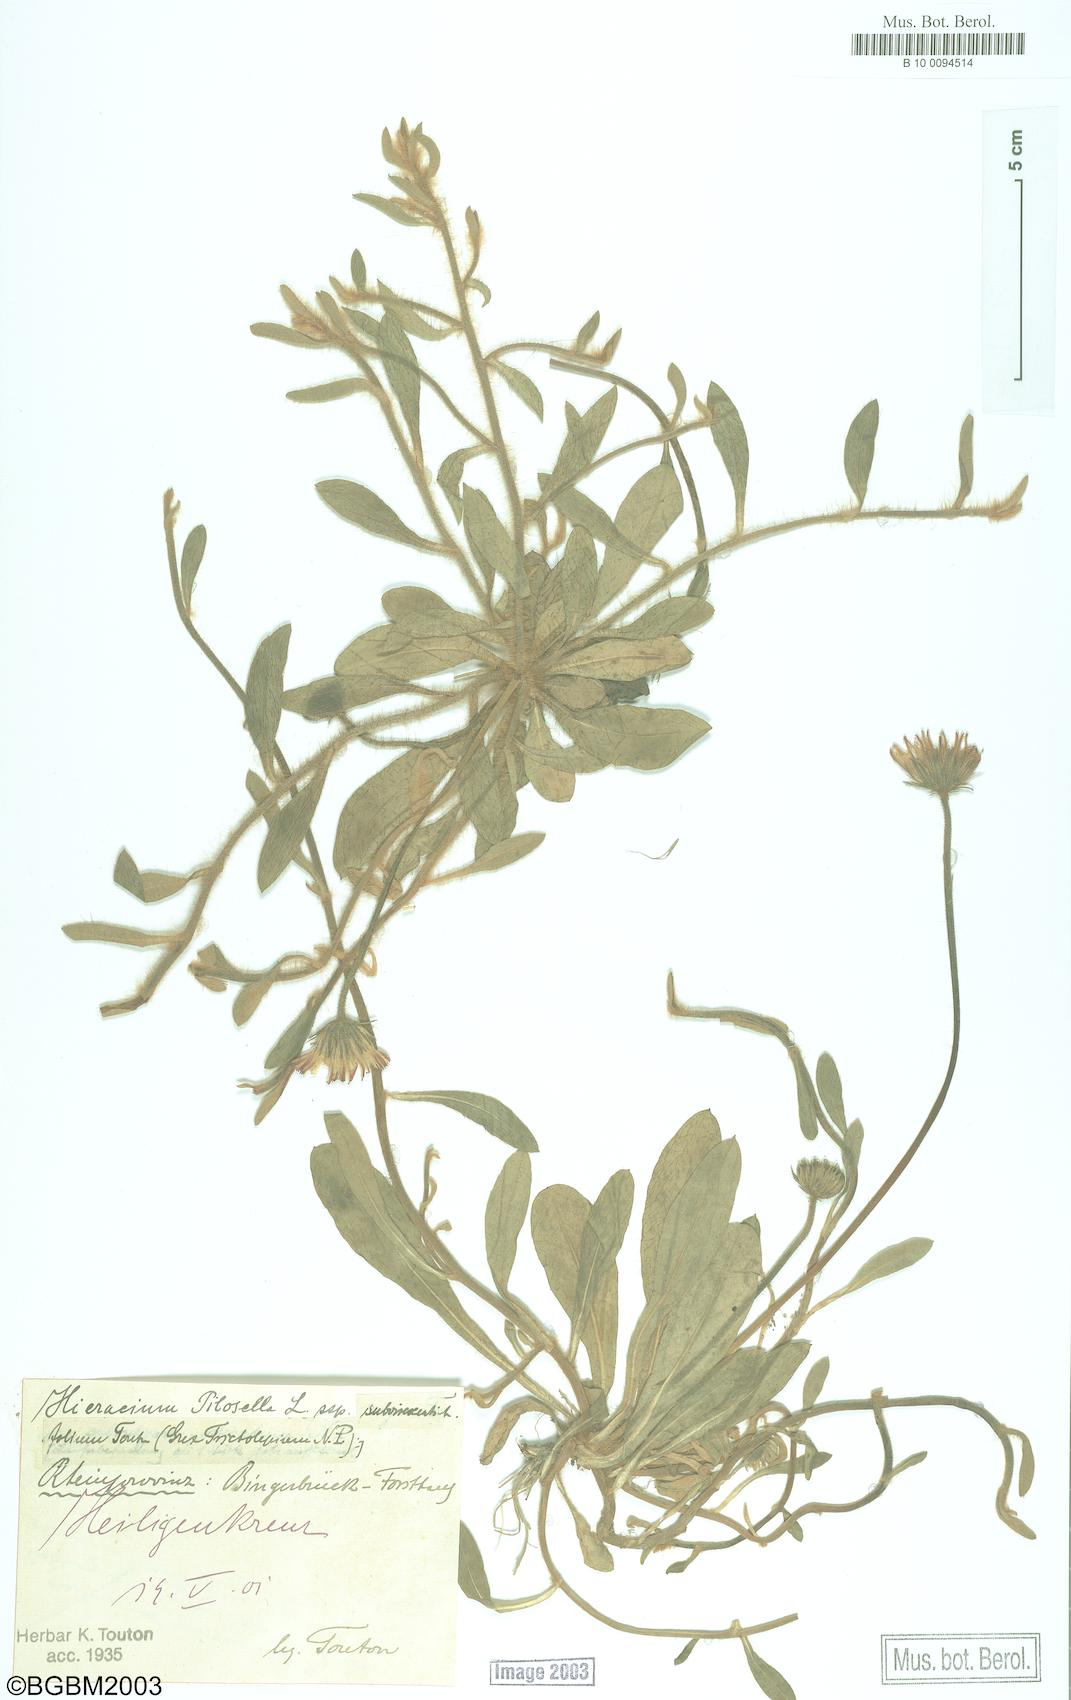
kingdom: Plantae
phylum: Tracheophyta
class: Magnoliopsida
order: Asterales
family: Asteraceae
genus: Pilosella
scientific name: Pilosella officinarum
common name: Mouse-ear hawkweed
